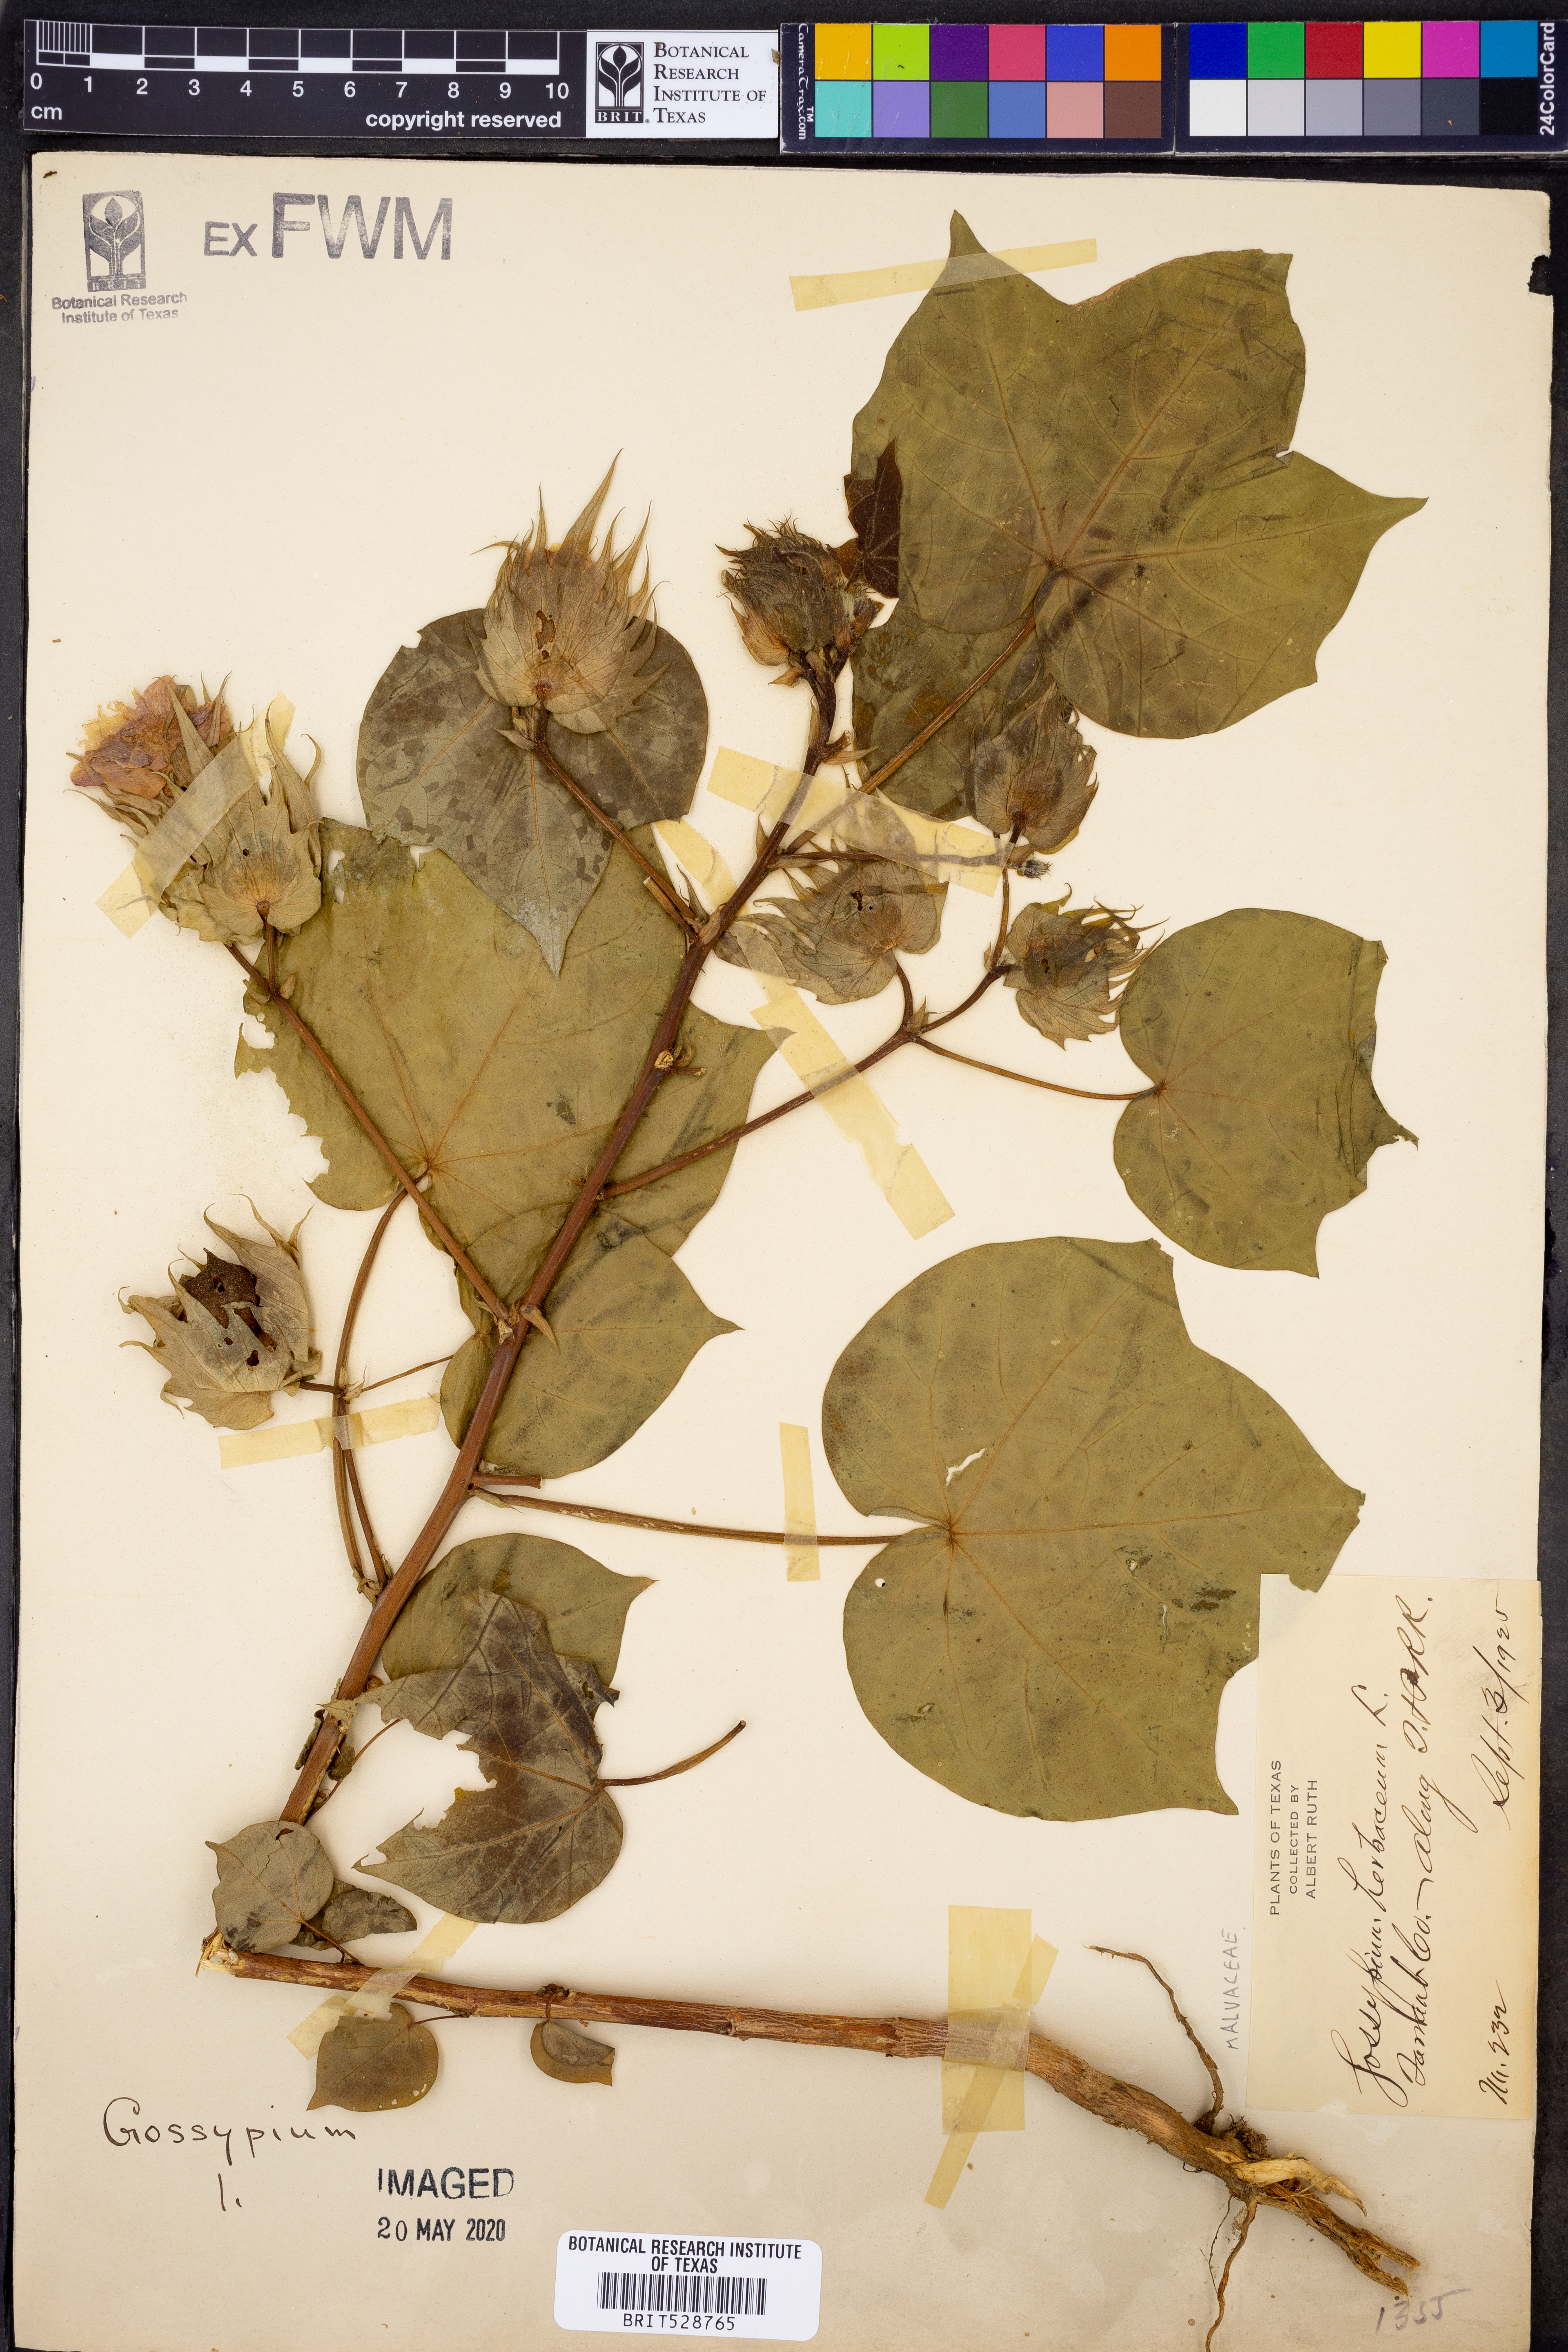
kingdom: Plantae
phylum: Tracheophyta
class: Magnoliopsida
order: Malvales
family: Malvaceae
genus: Gossypium
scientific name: Gossypium herbaceum
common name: Levant cotton
